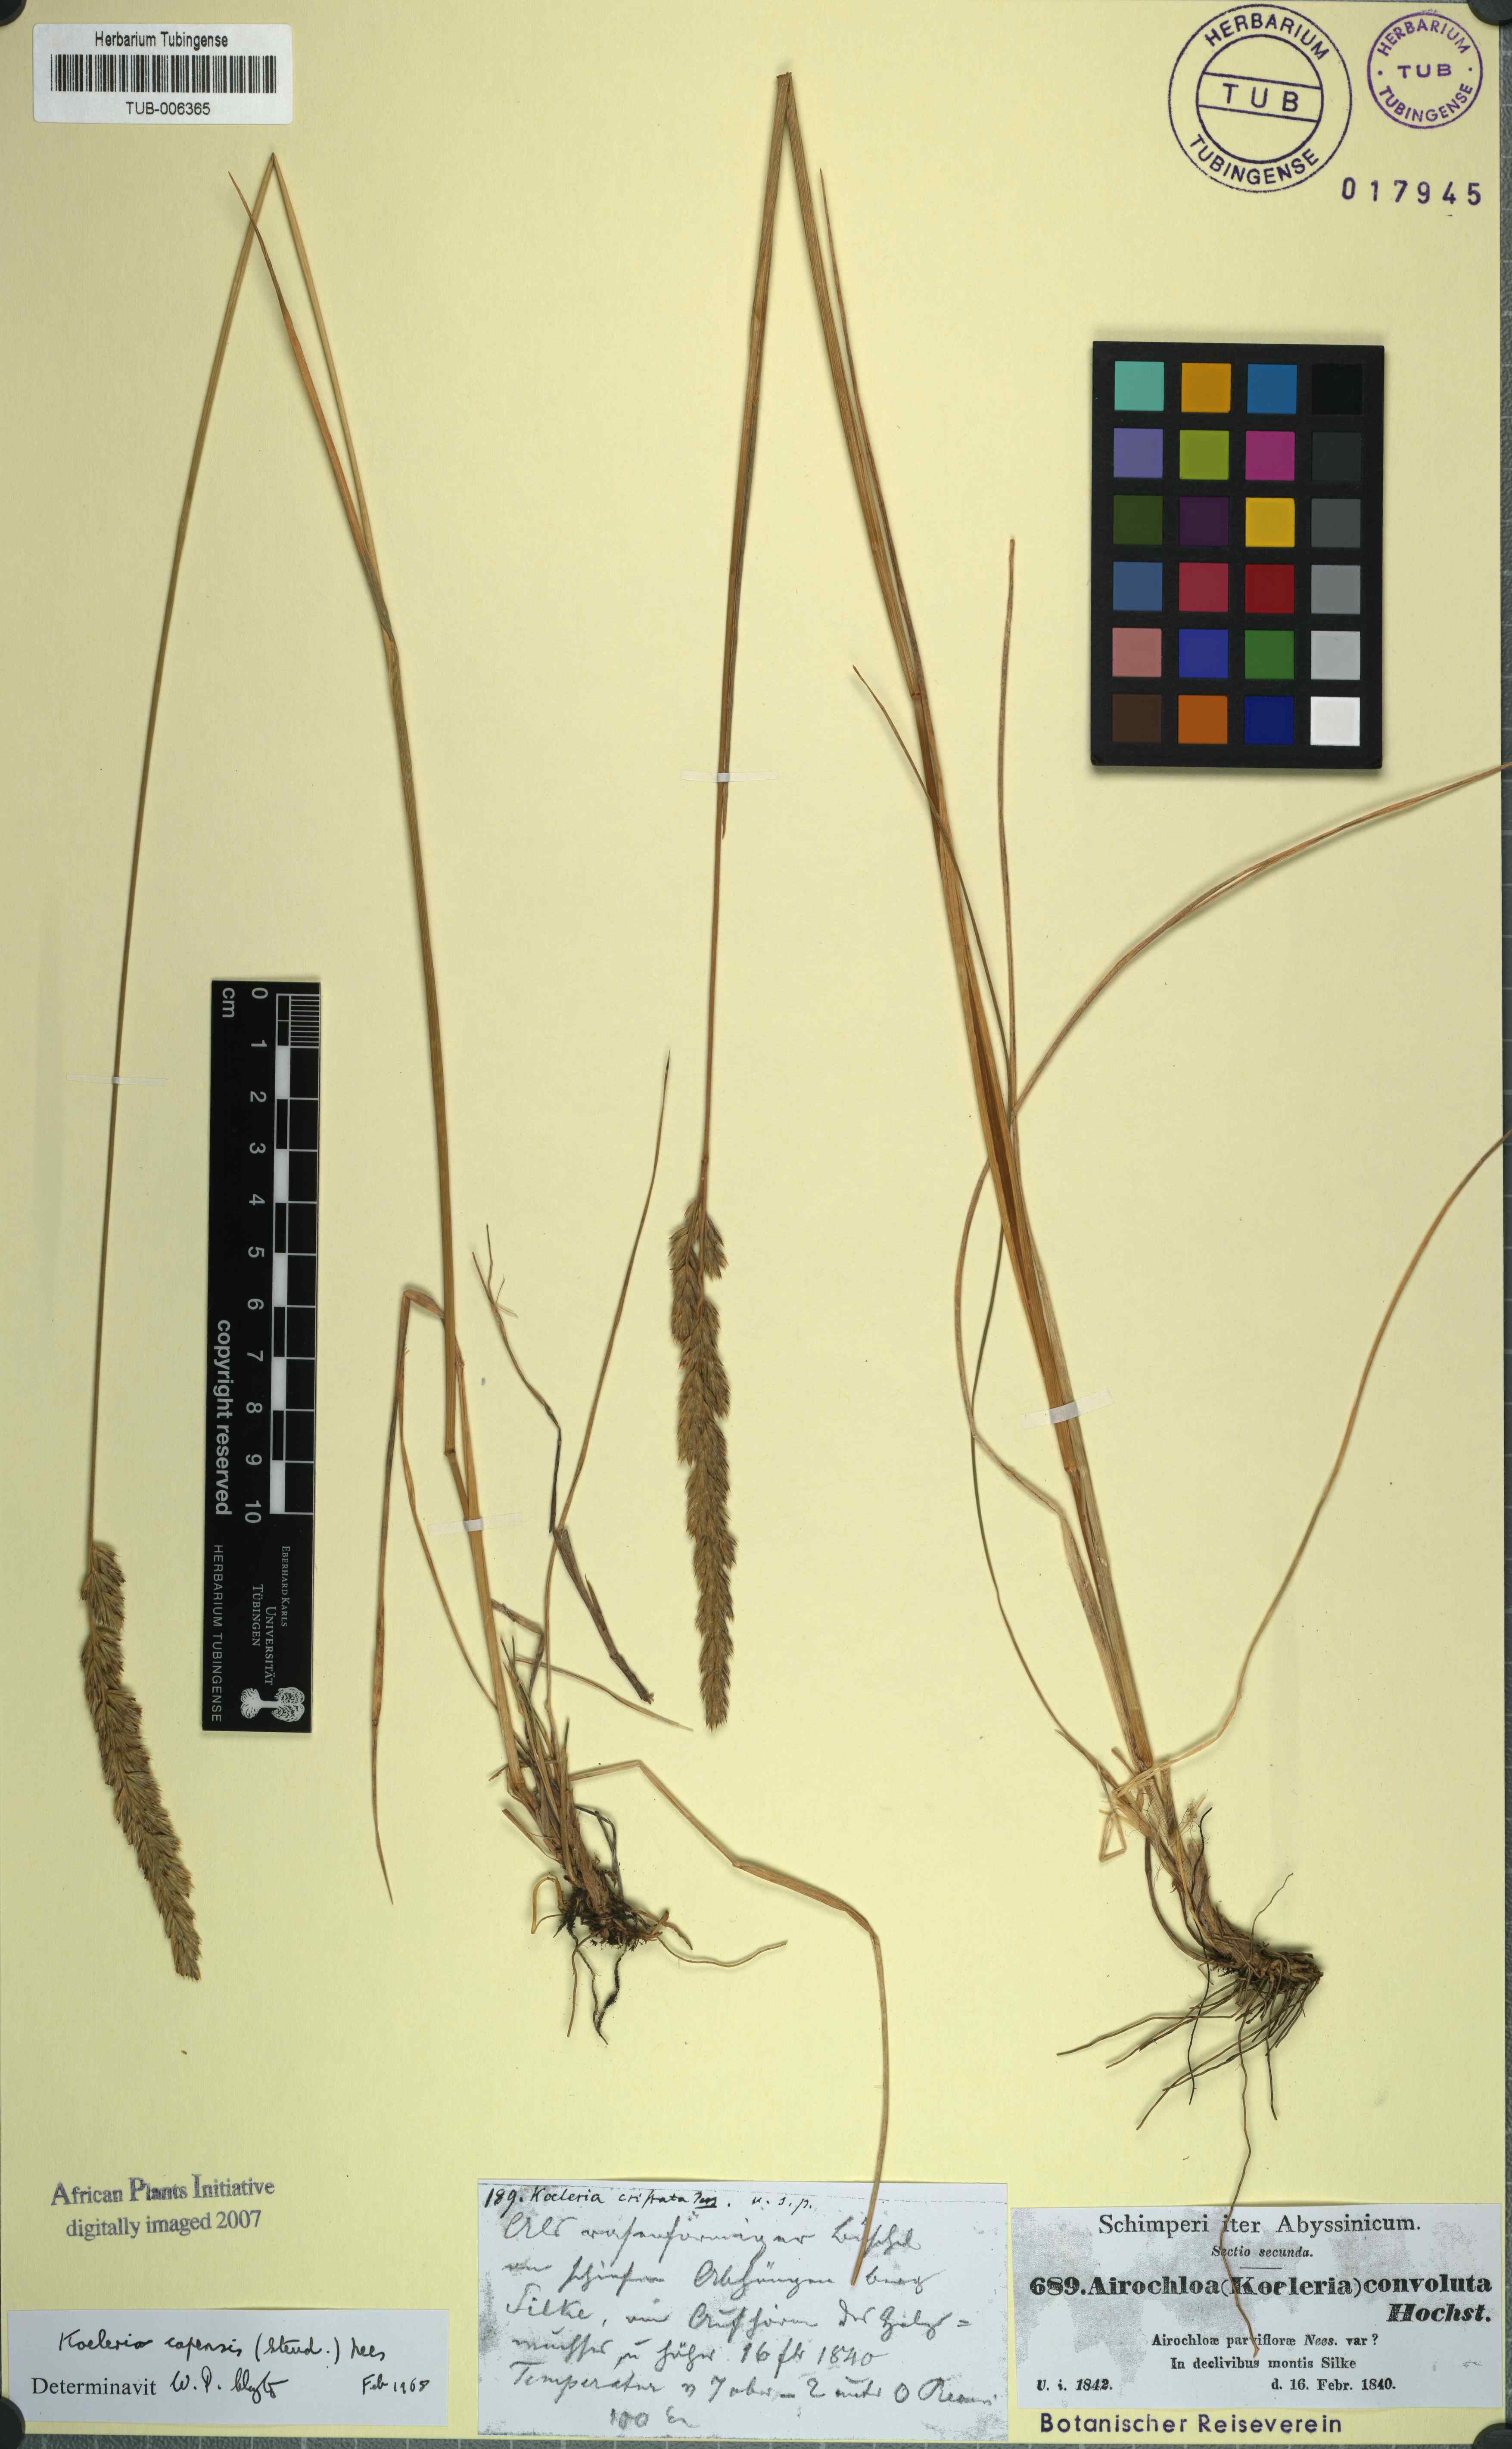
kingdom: Plantae
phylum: Tracheophyta
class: Liliopsida
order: Poales
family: Poaceae
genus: Koeleria
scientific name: Koeleria capensis
